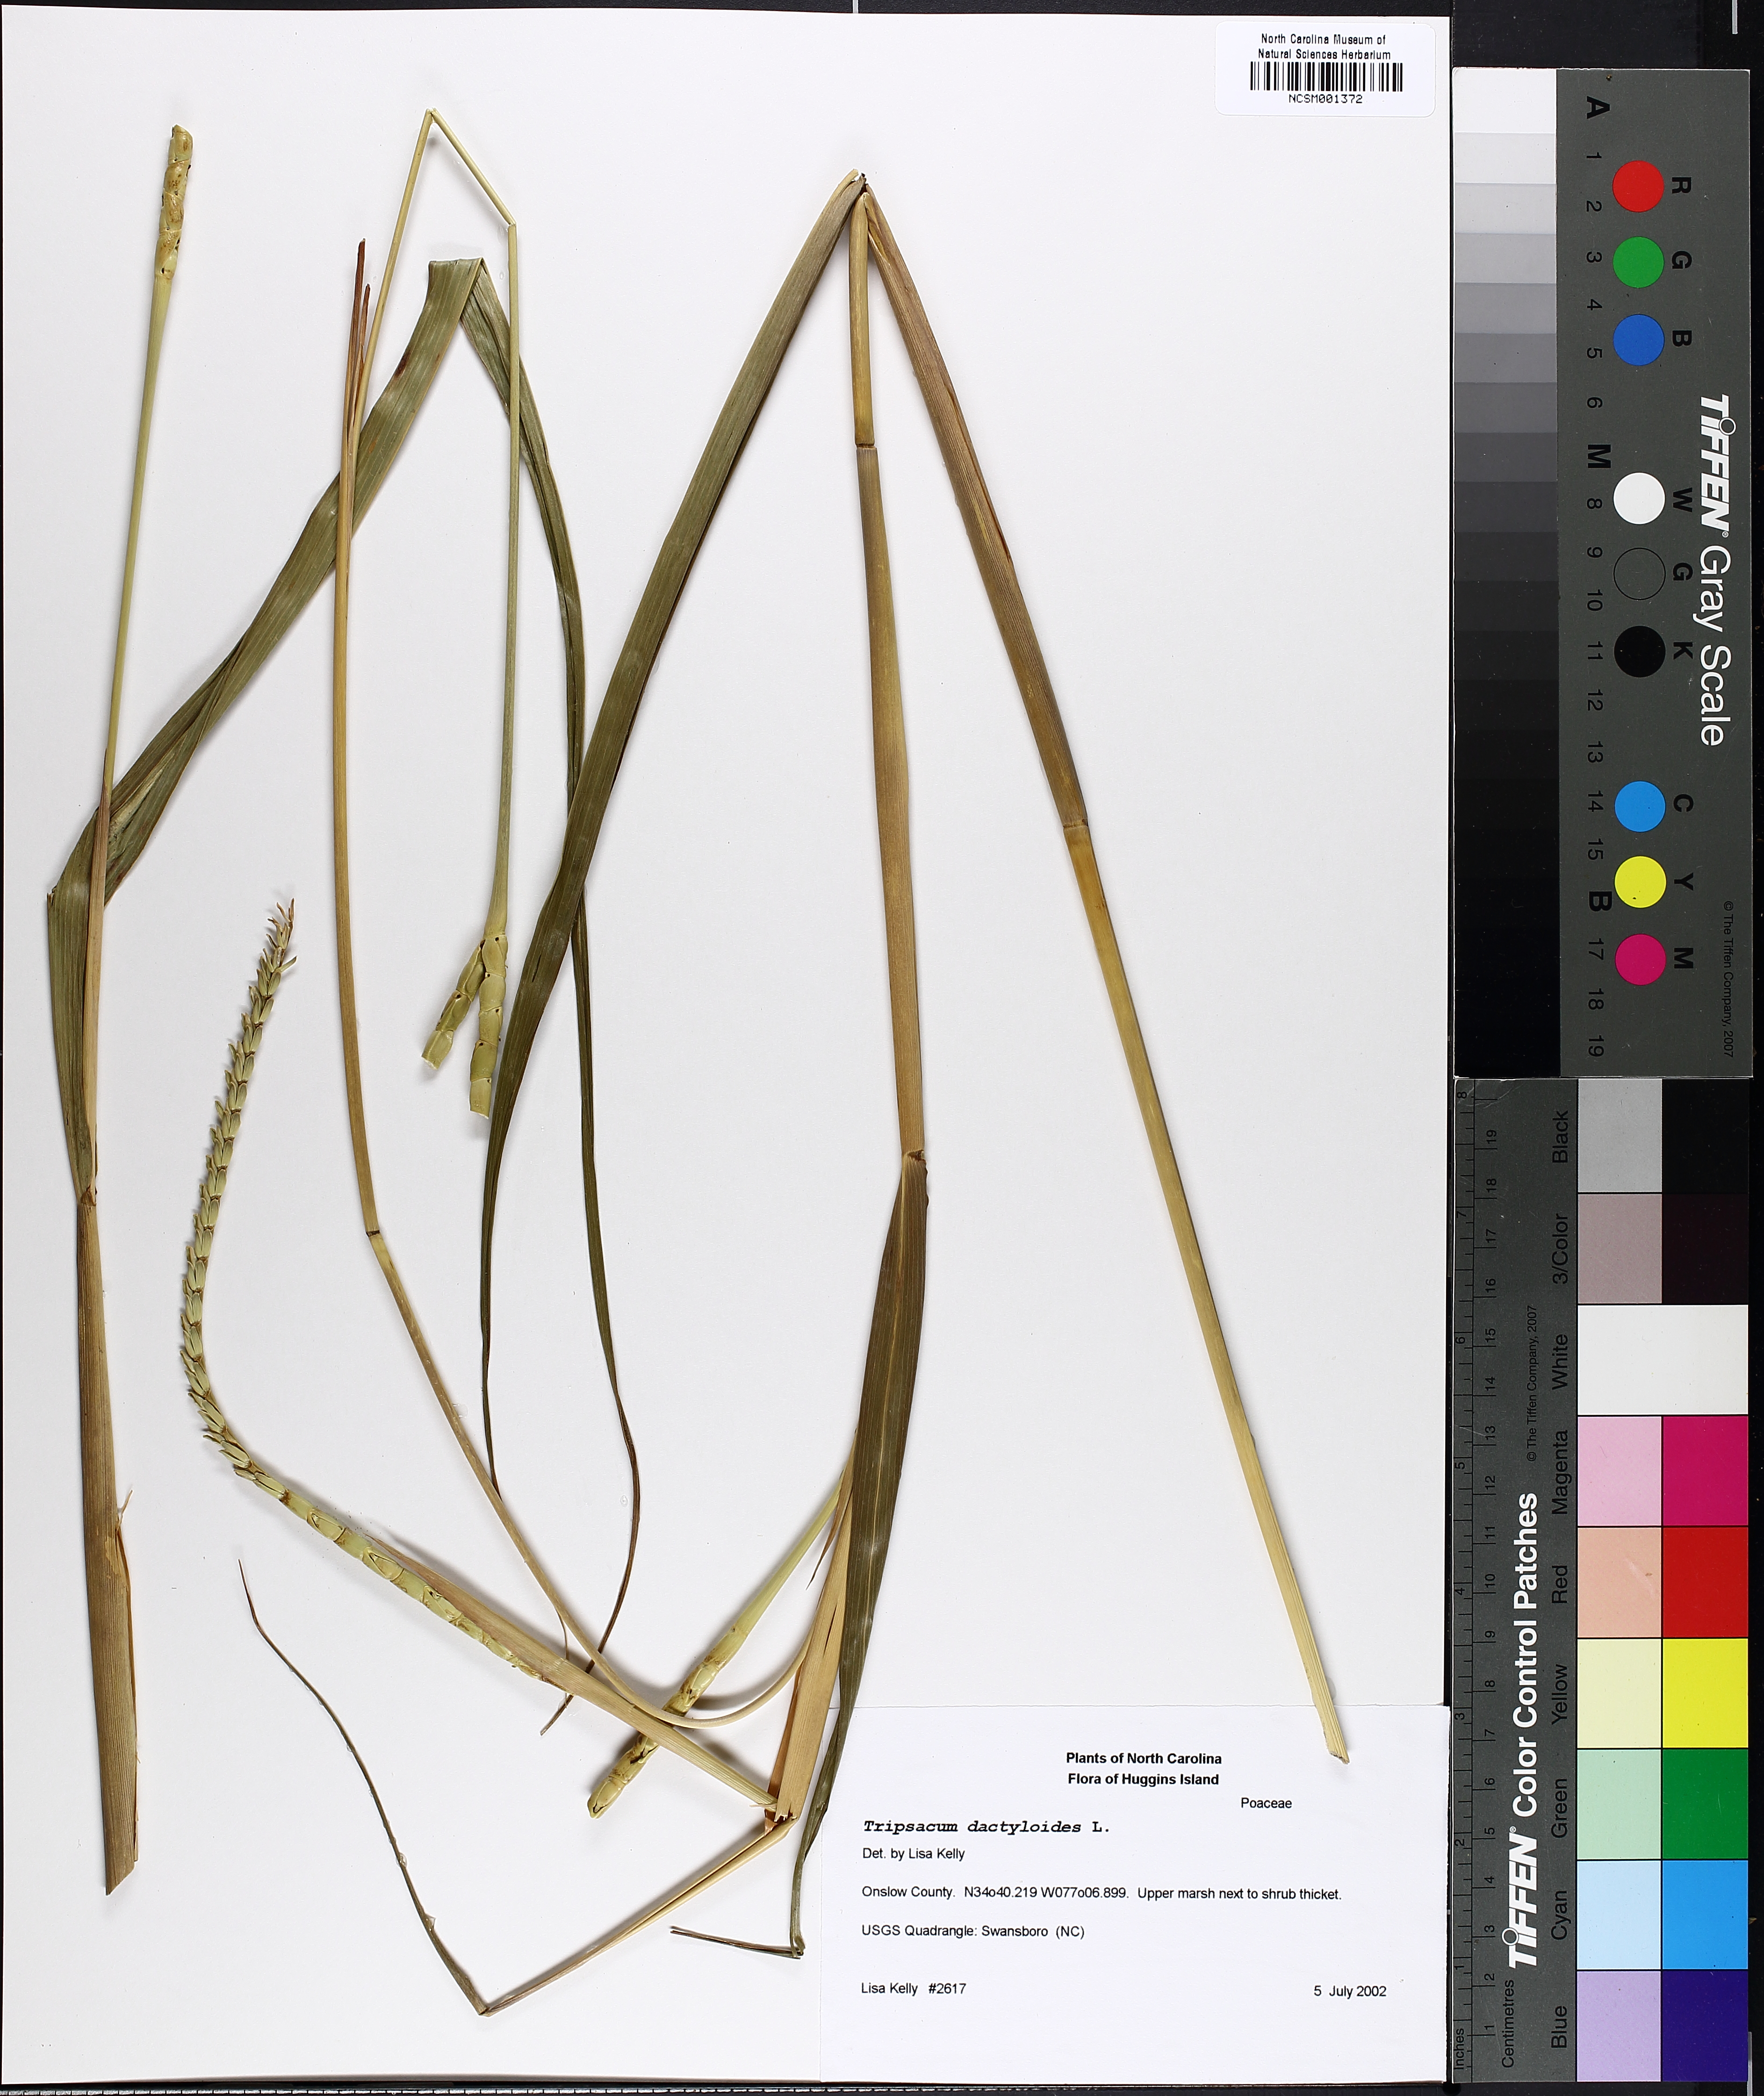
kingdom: Plantae
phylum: Tracheophyta
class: Liliopsida
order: Poales
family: Poaceae
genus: Tripsacum
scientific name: Tripsacum dactyloides
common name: Buffalo-grass
